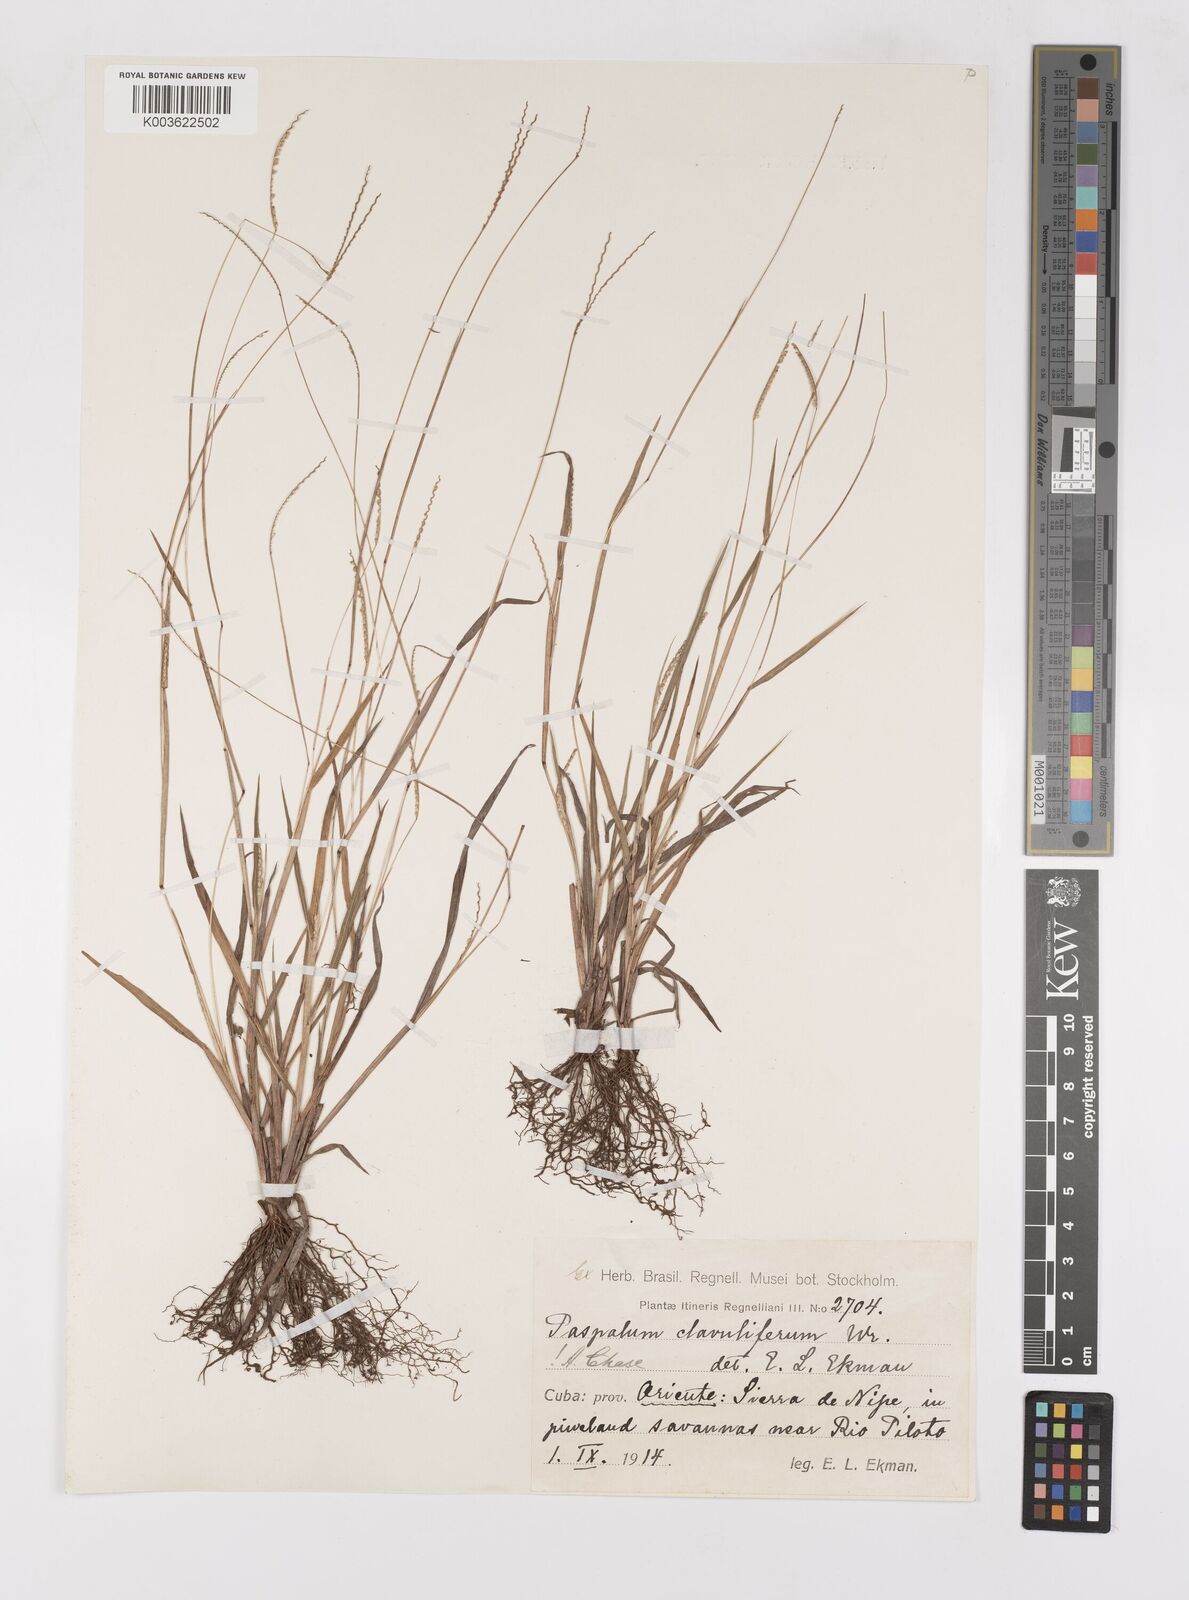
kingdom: Plantae
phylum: Tracheophyta
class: Liliopsida
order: Poales
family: Poaceae
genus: Paspalum
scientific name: Paspalum clavuliferum
